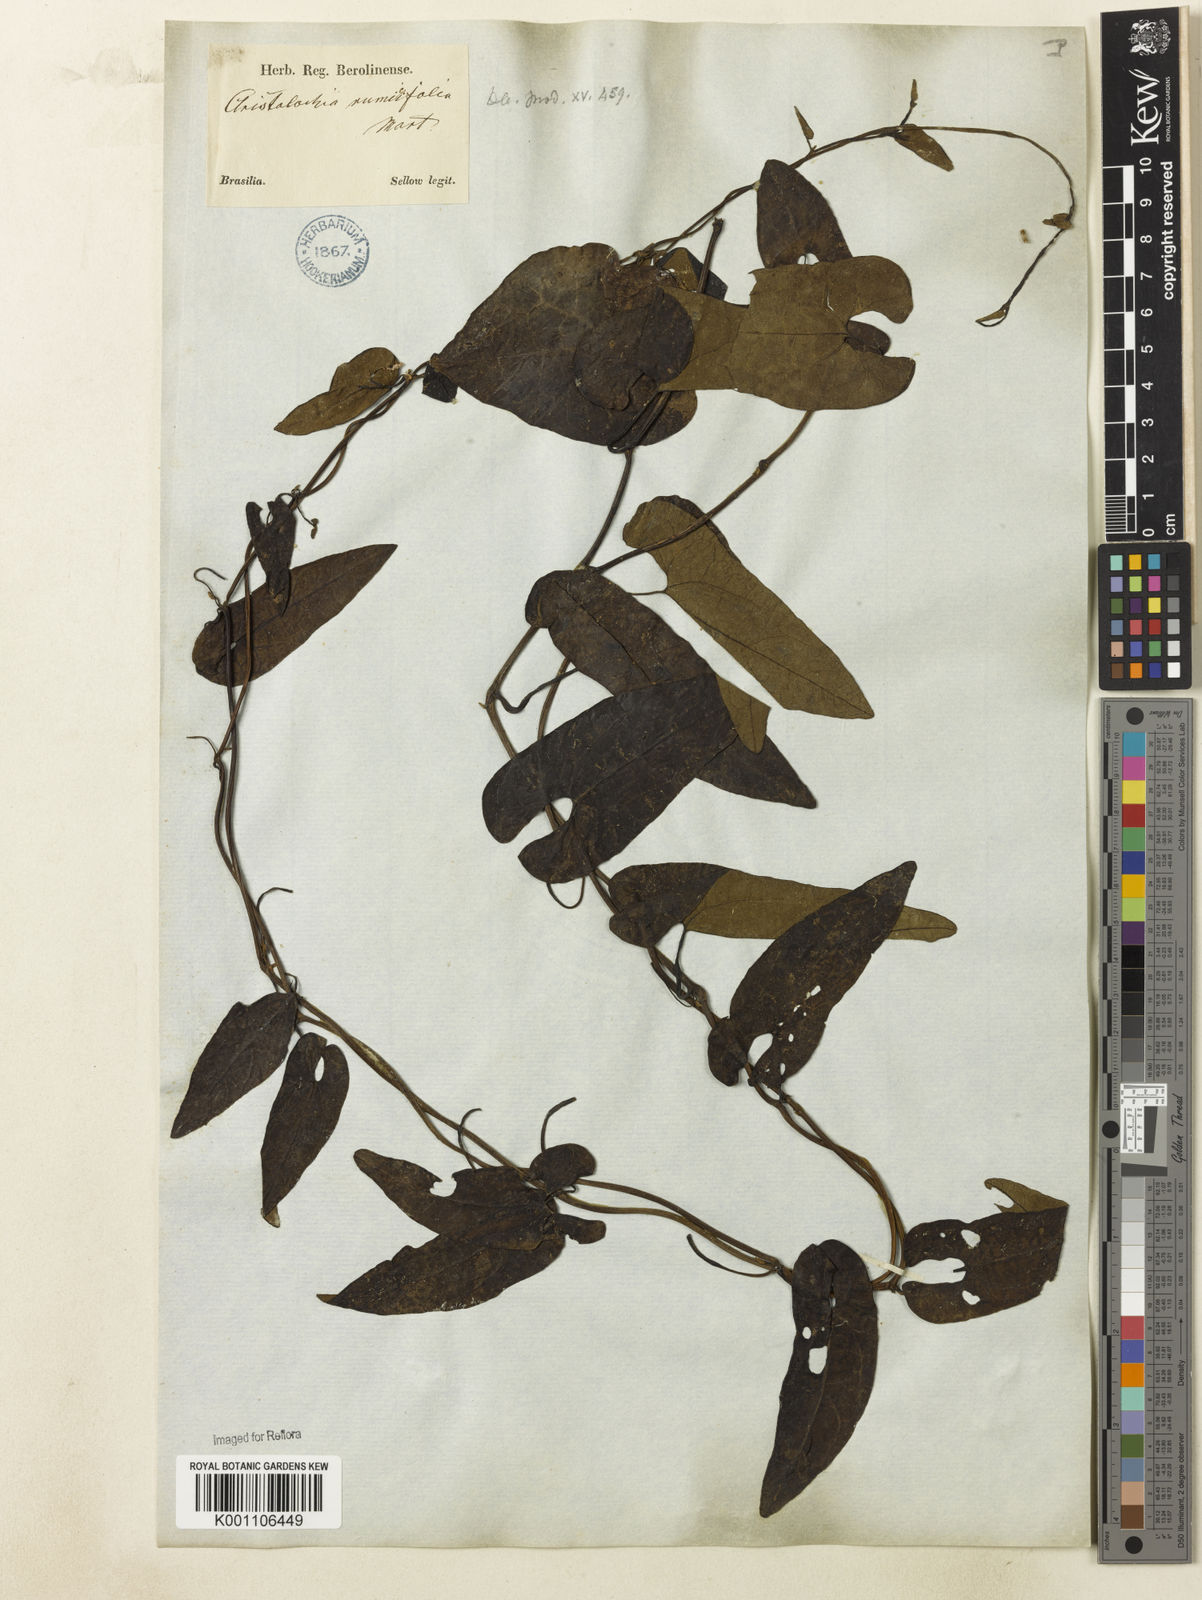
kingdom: Plantae
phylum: Tracheophyta
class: Magnoliopsida
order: Piperales
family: Aristolochiaceae
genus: Aristolochia
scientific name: Aristolochia rumicifolia
